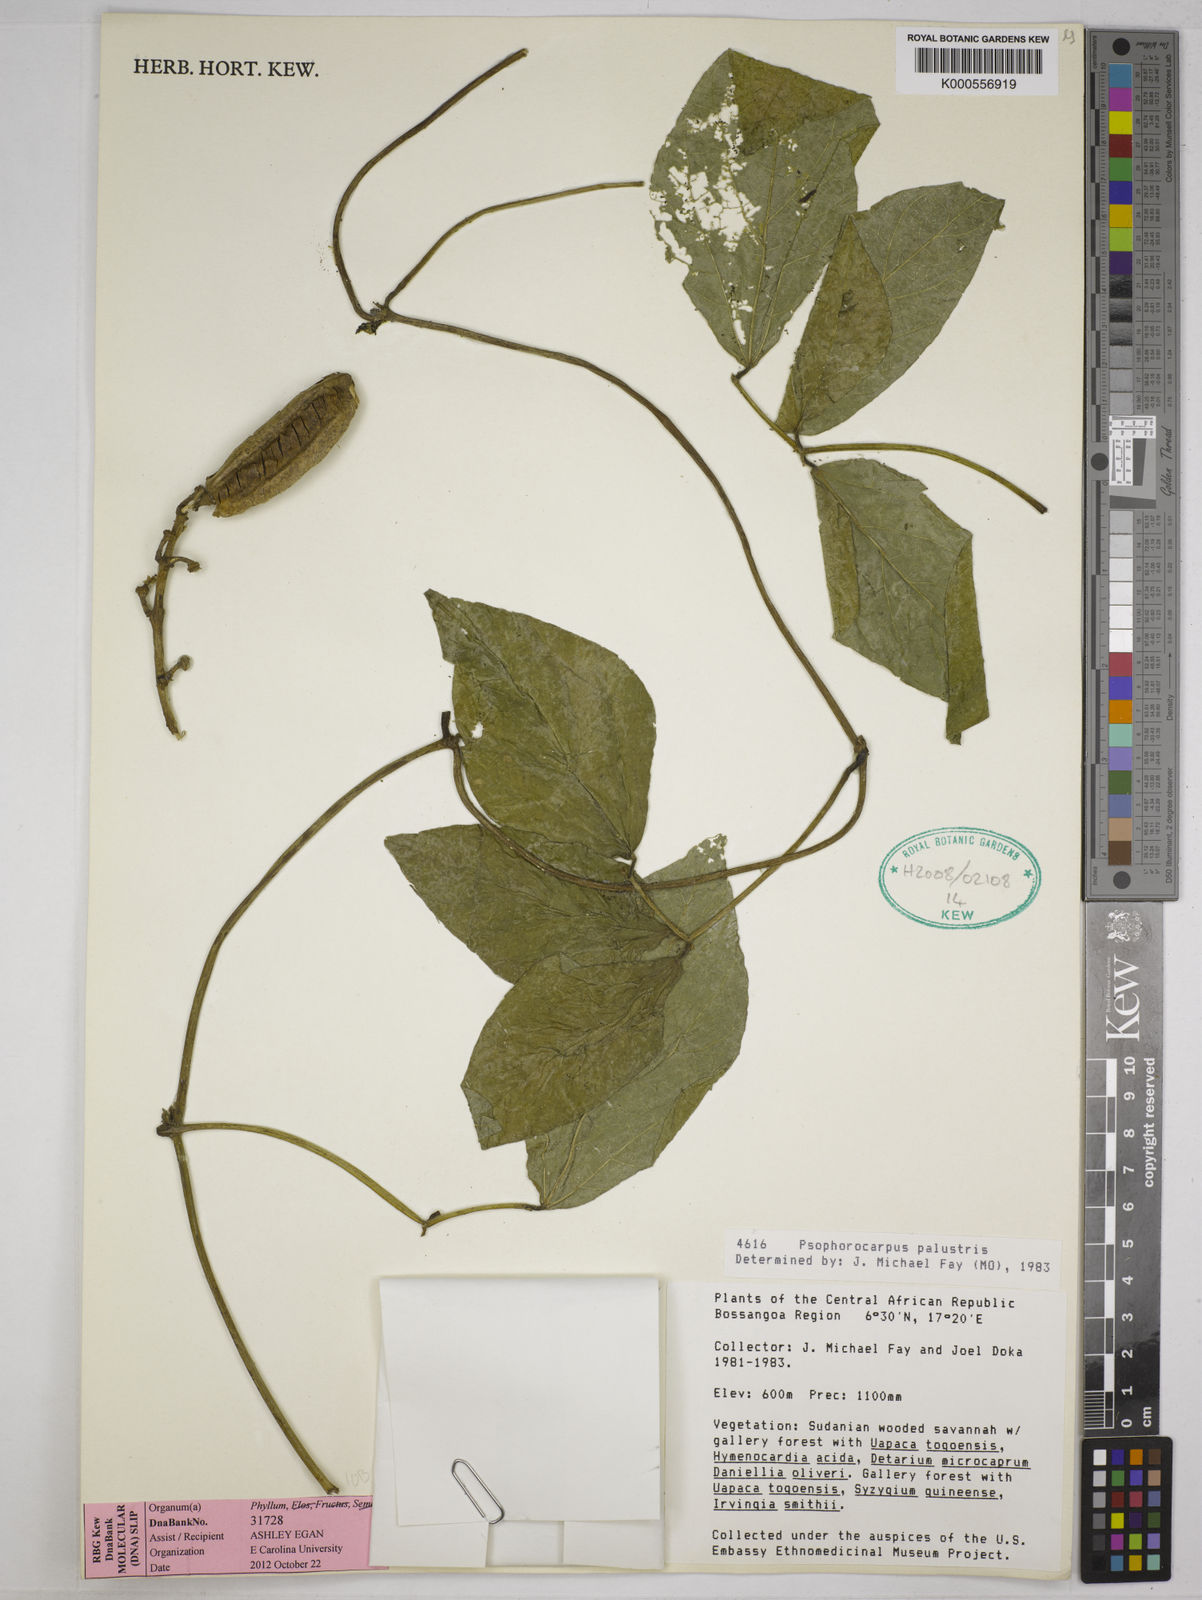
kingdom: Plantae
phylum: Tracheophyta
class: Magnoliopsida
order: Fabales
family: Fabaceae
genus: Psophocarpus
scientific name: Psophocarpus palustris
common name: African winged-bean
